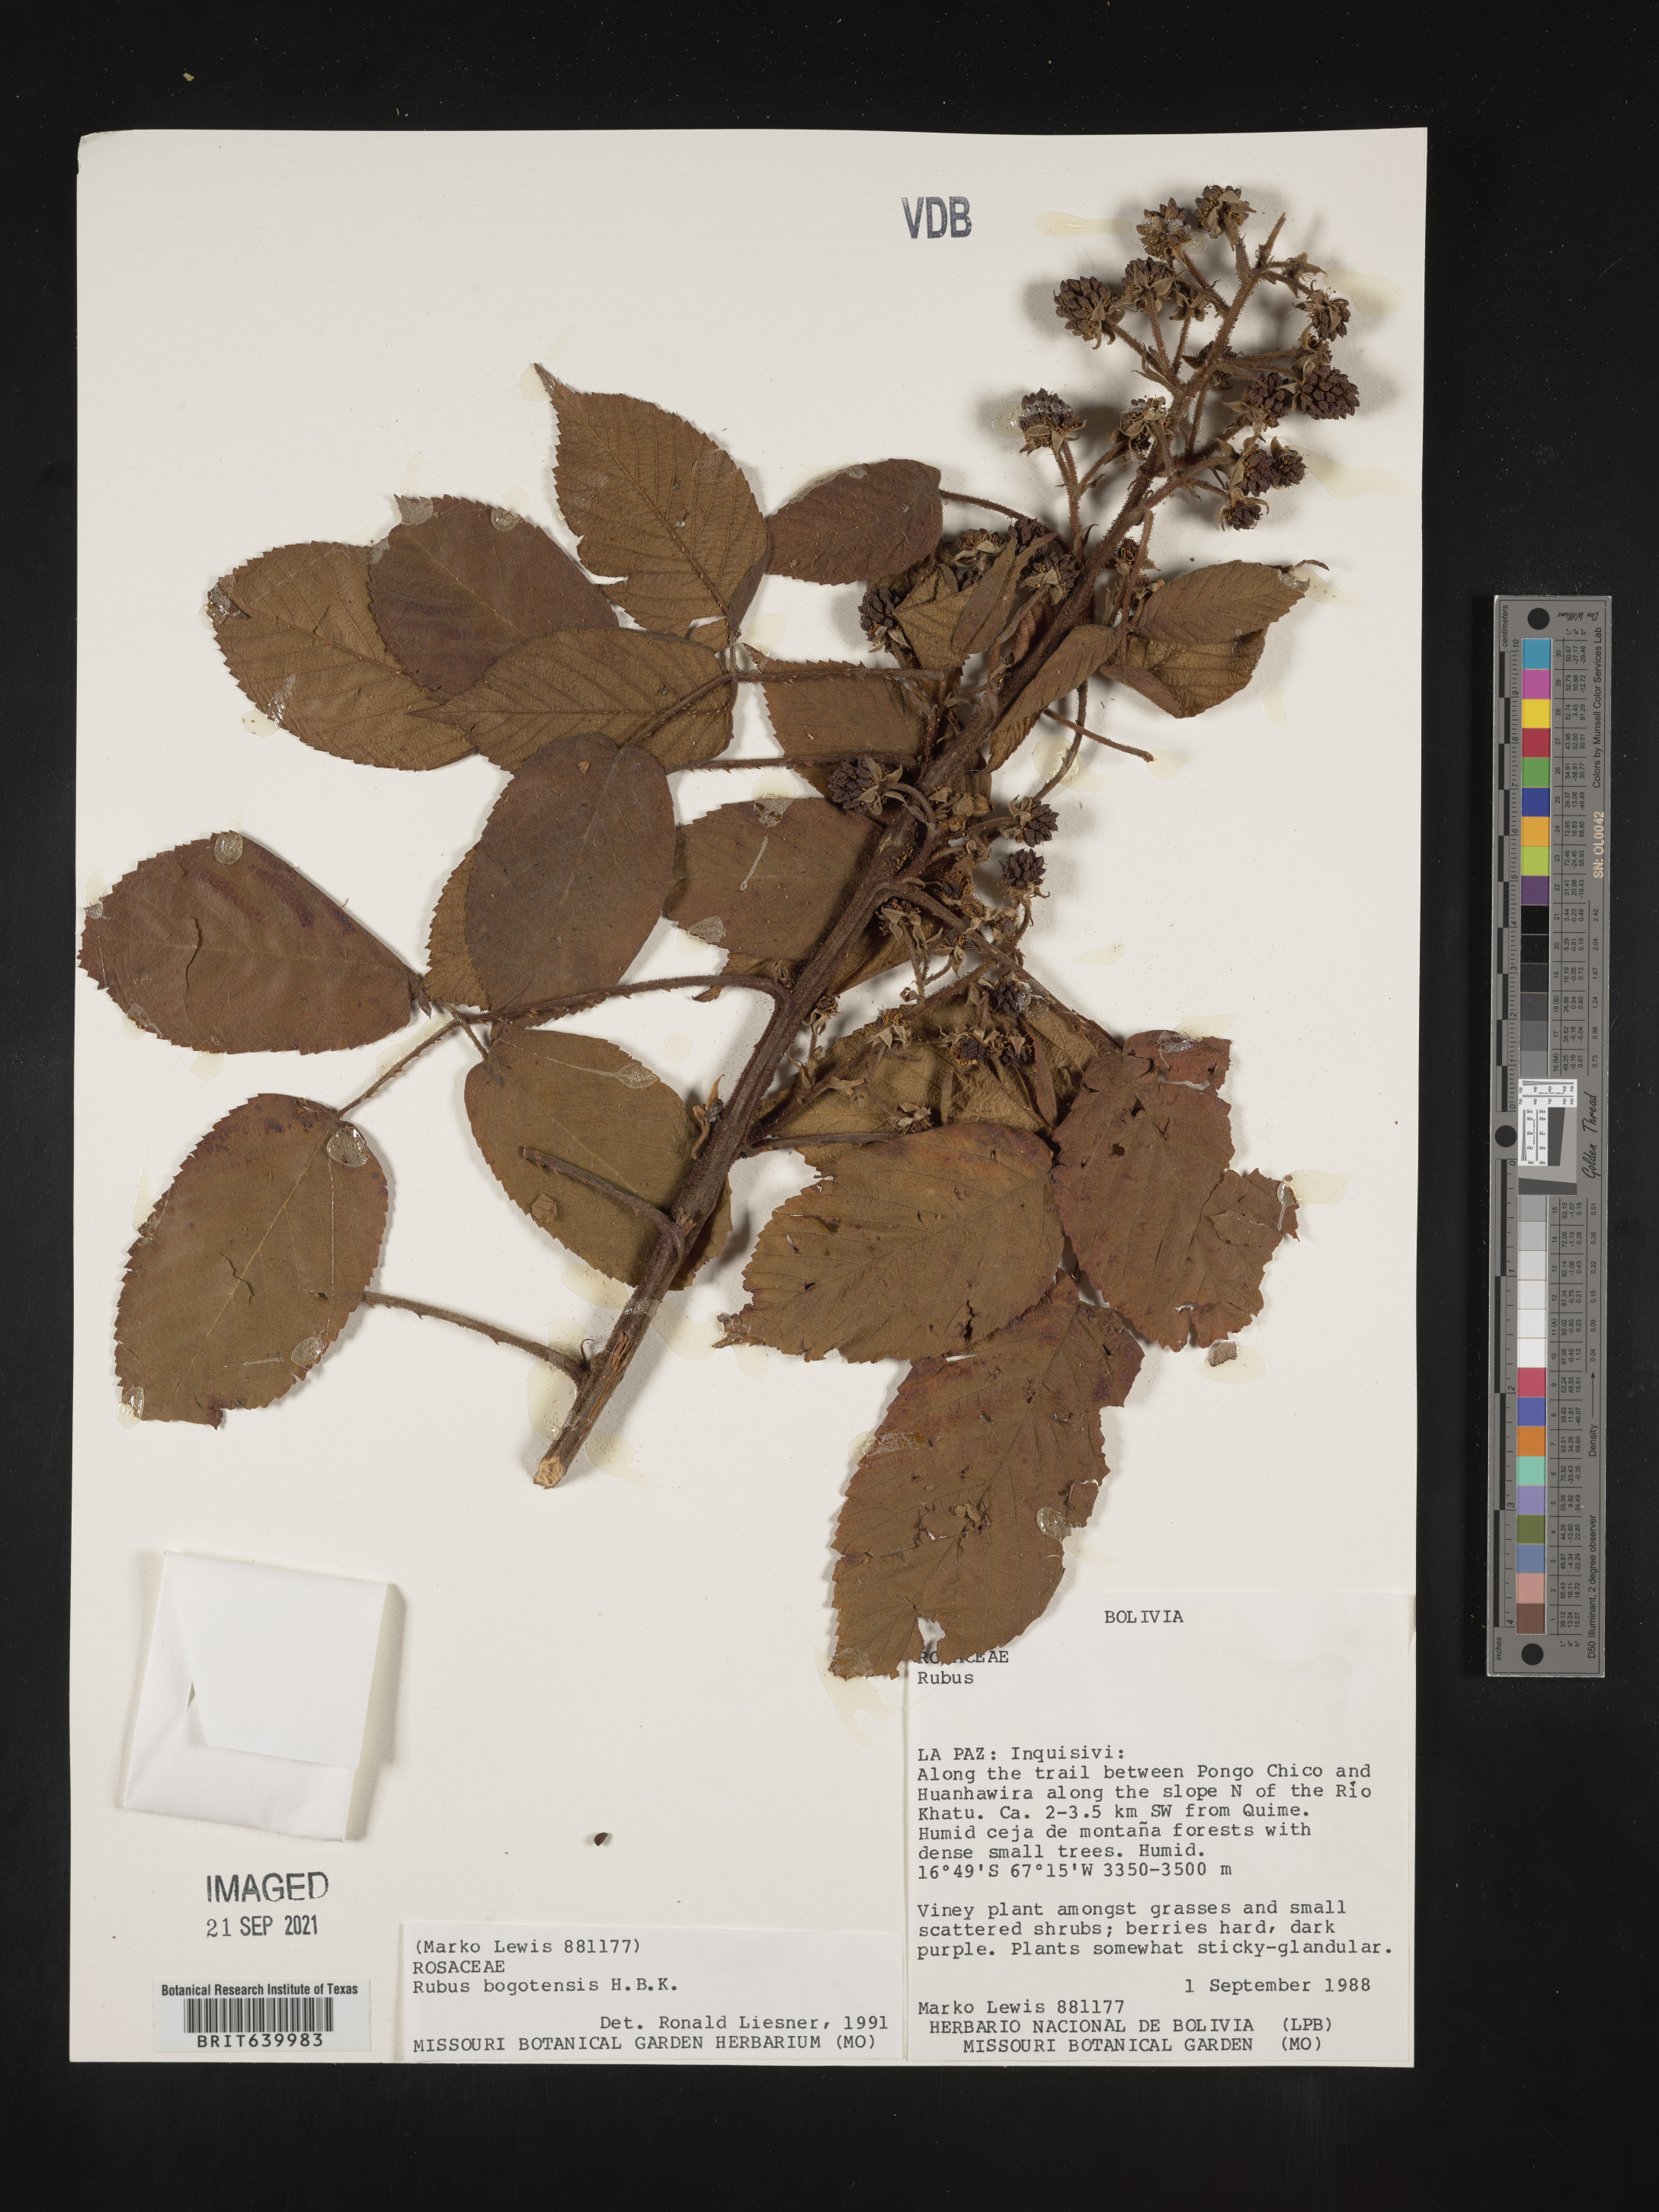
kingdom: Plantae
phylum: Tracheophyta
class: Magnoliopsida
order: Rosales
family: Rosaceae
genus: Rubus
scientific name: Rubus
